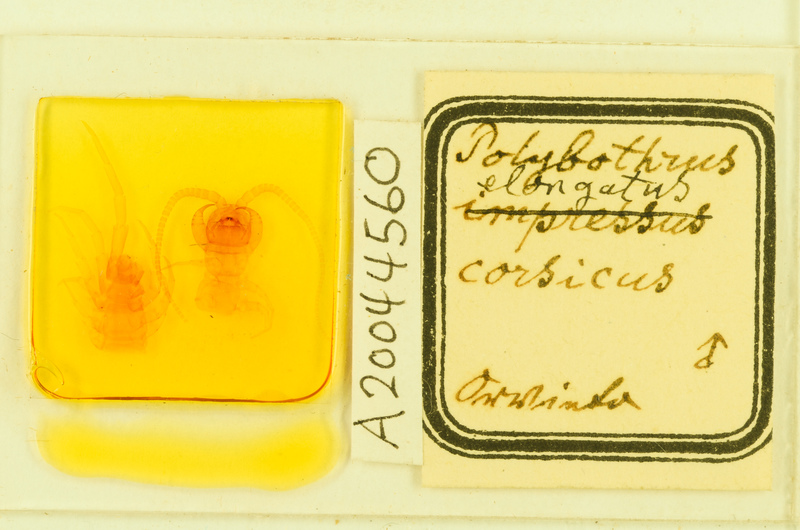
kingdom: Animalia
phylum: Arthropoda
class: Chilopoda
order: Lithobiomorpha
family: Lithobiidae
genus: Polybothrus
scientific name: Polybothrus
